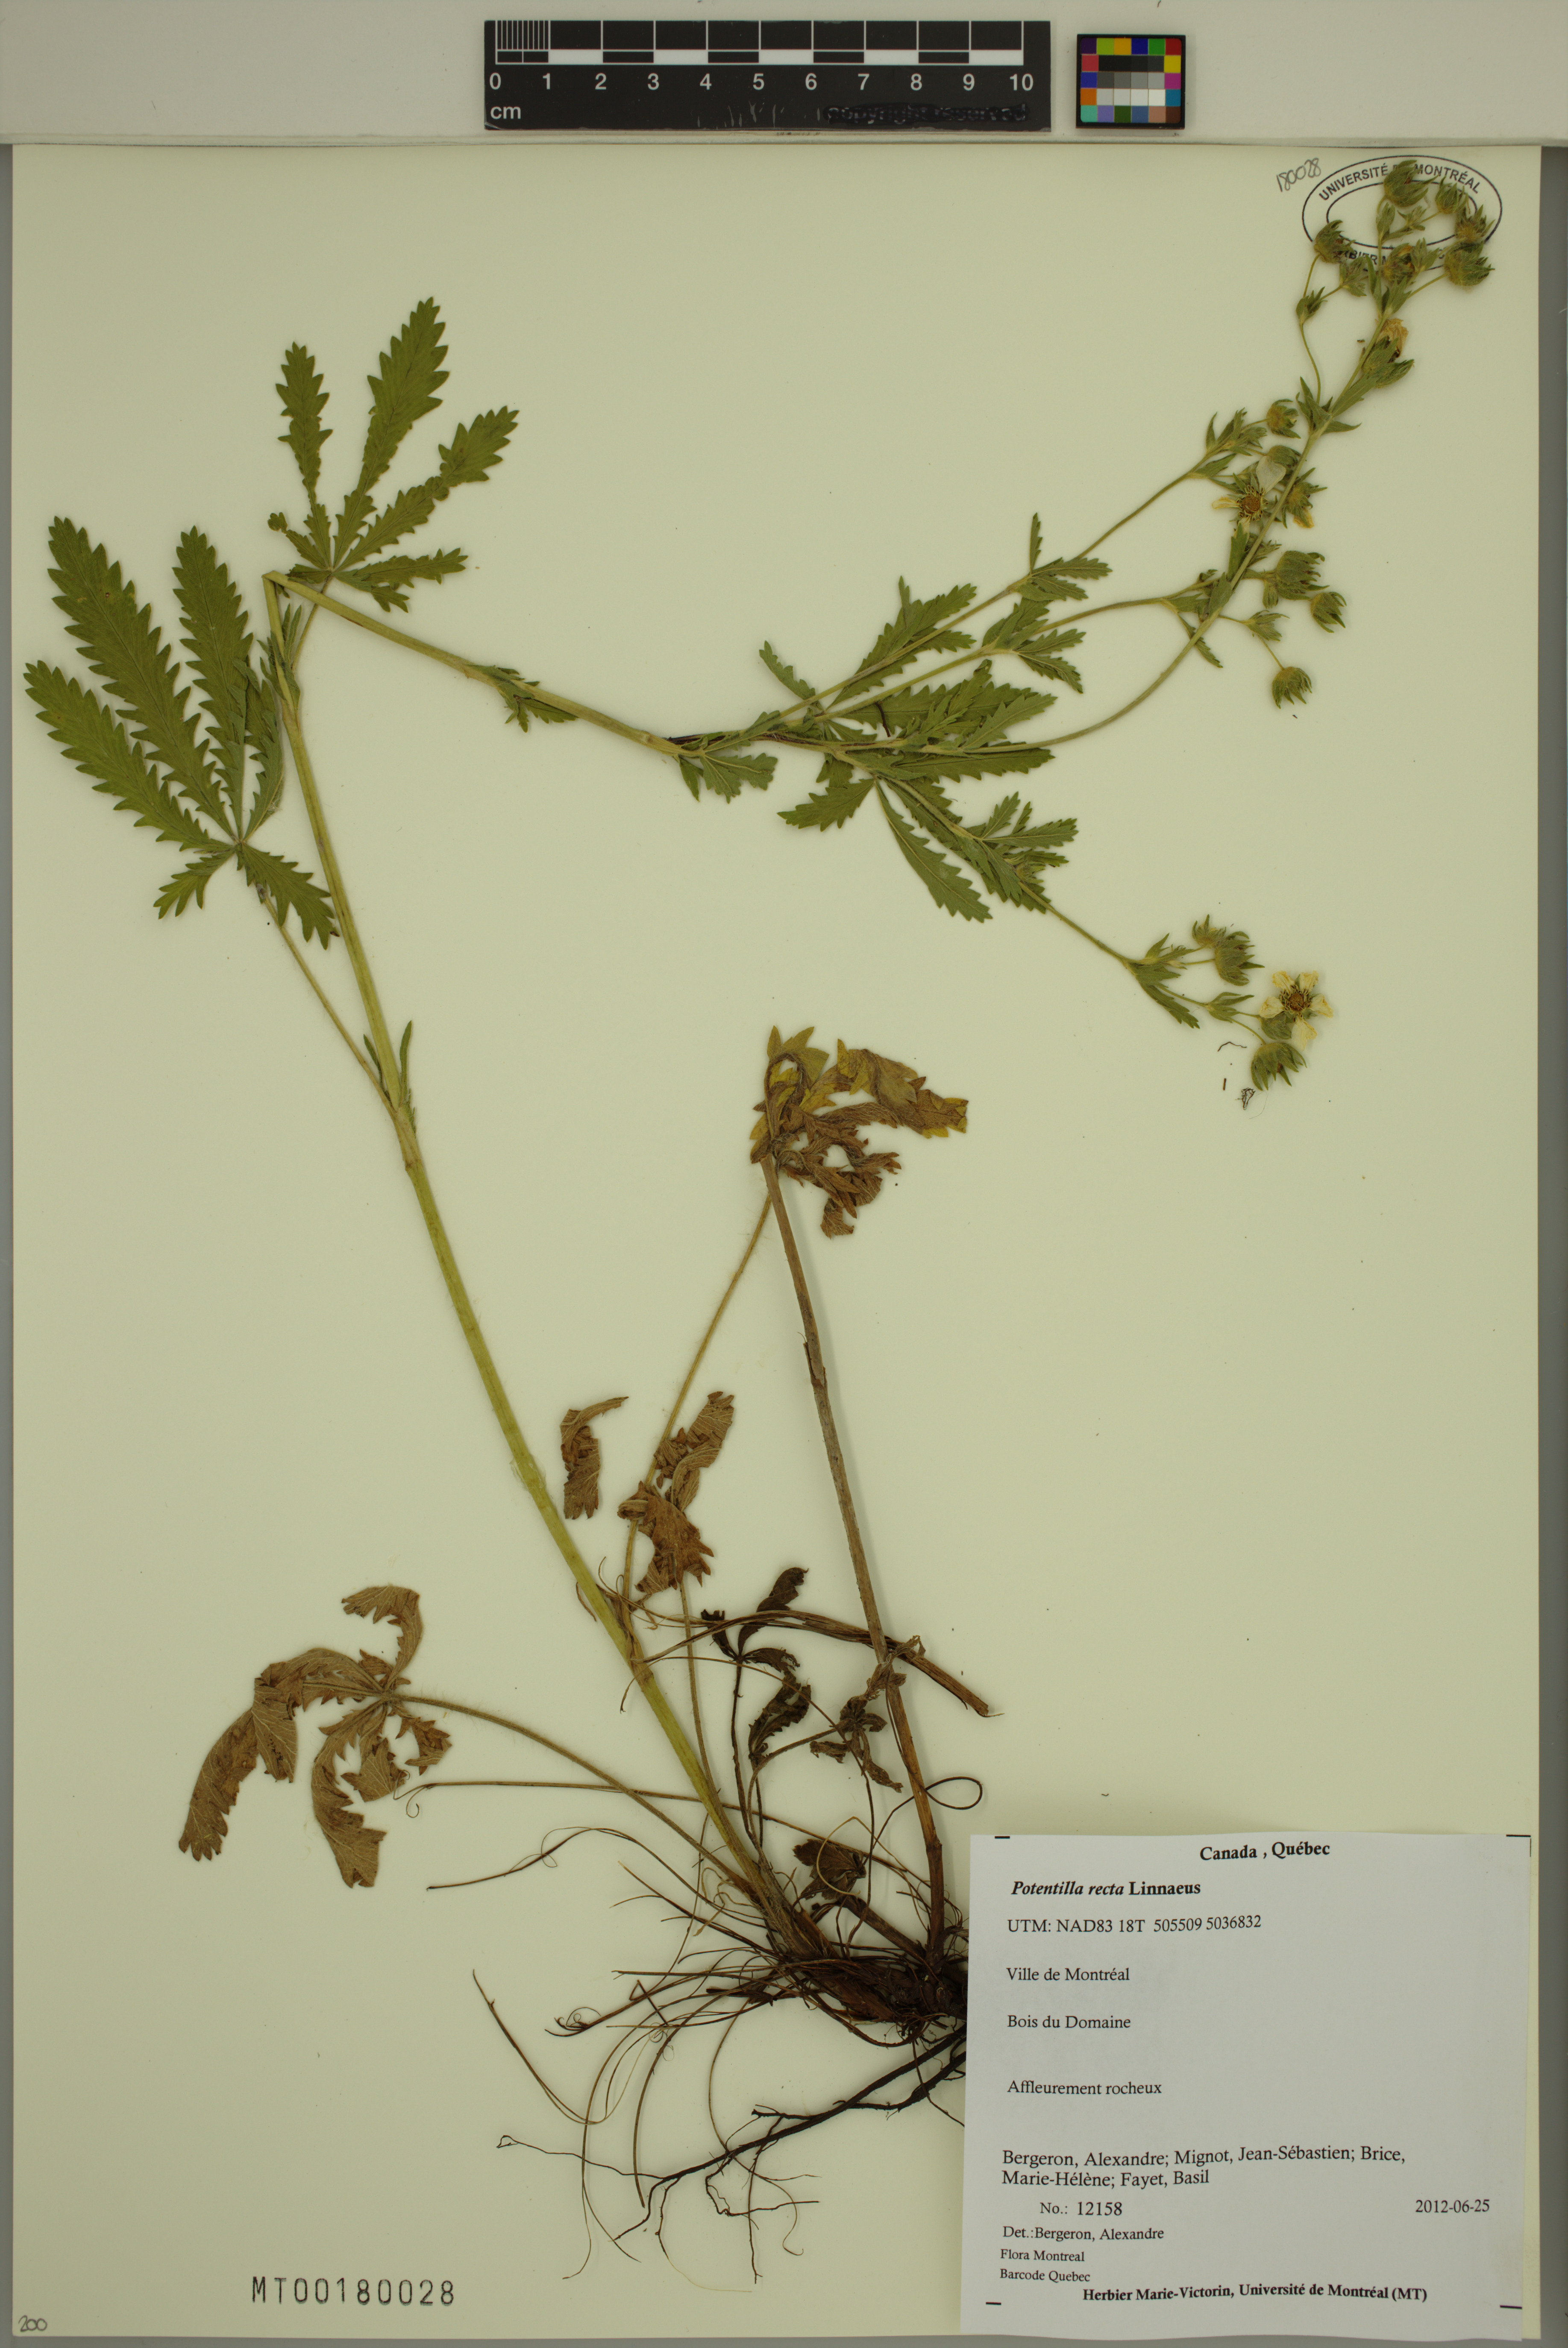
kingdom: Plantae
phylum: Tracheophyta
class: Magnoliopsida
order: Rosales
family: Rosaceae
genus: Potentilla
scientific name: Potentilla recta
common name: Sulphur cinquefoil
